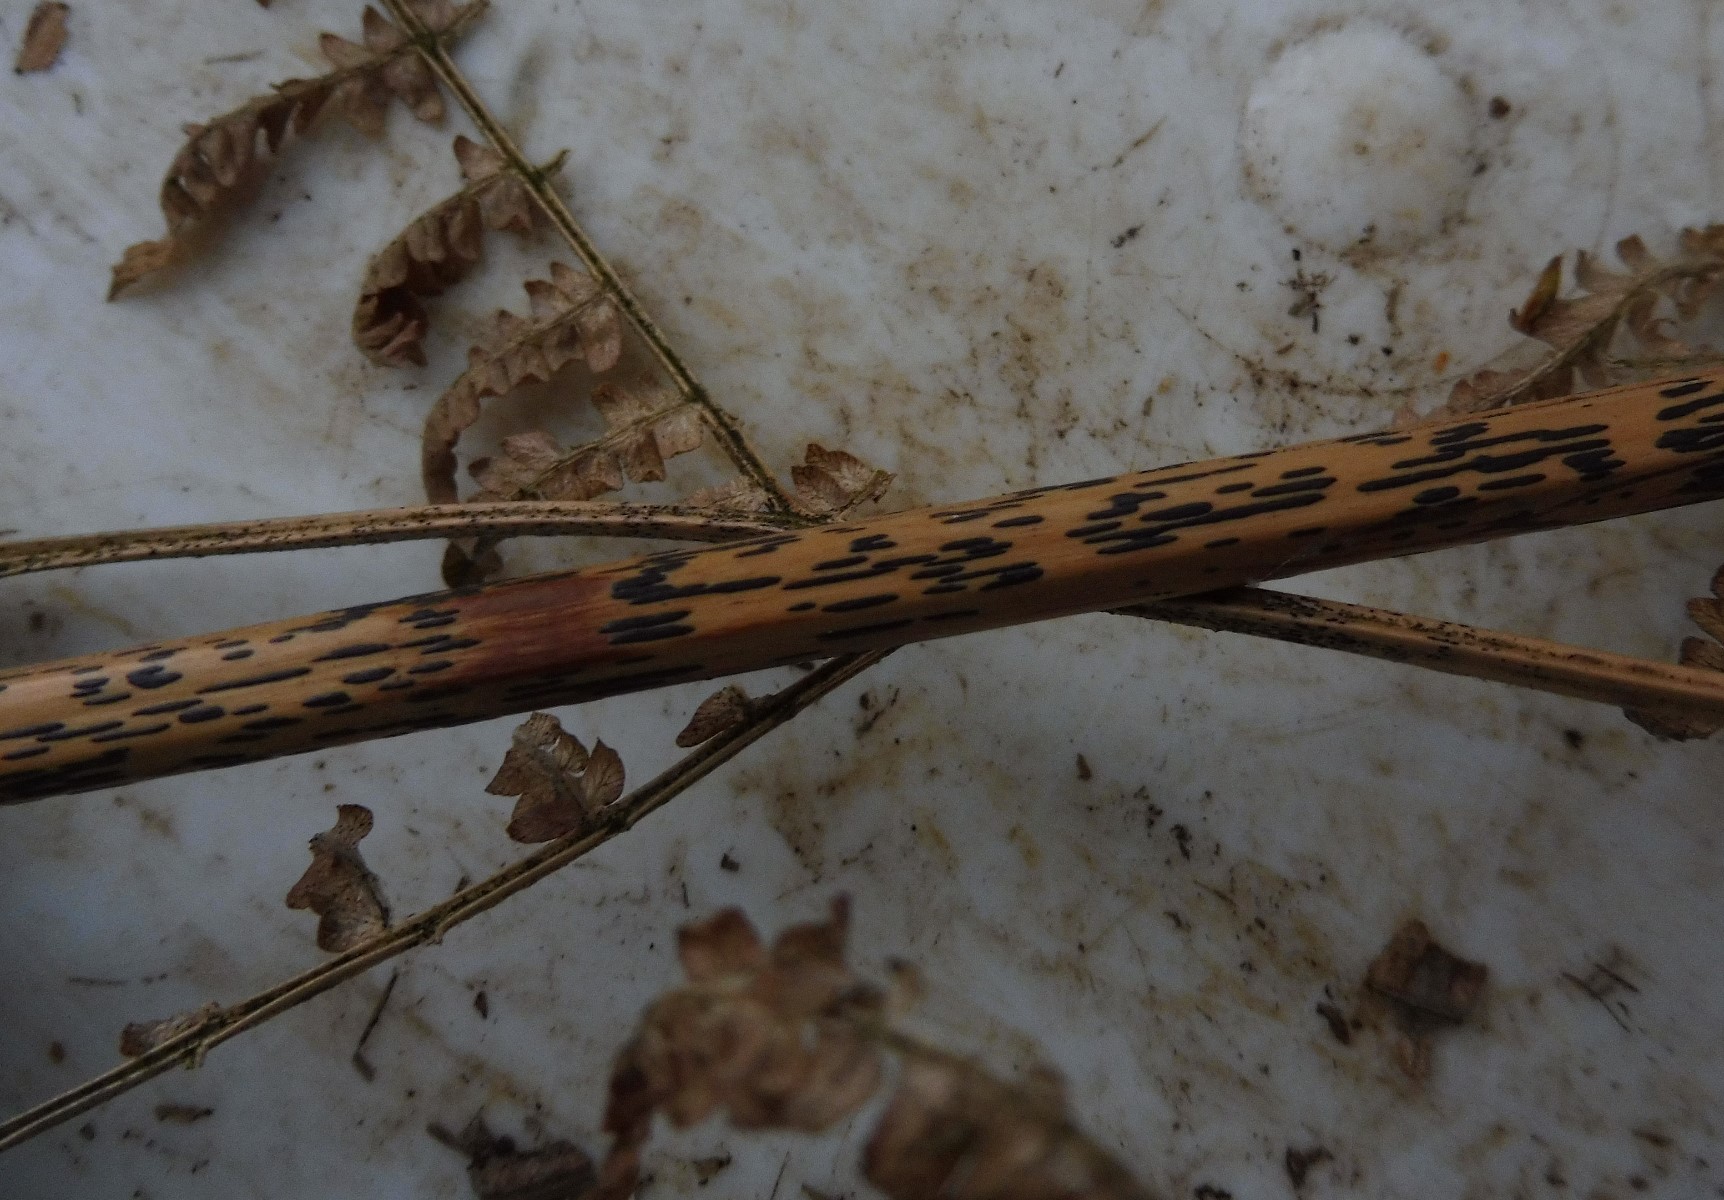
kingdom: Fungi
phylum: Ascomycota
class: Dothideomycetes
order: Pleosporales
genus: Rhopographus
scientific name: Rhopographus filicinus
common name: Bracken map
